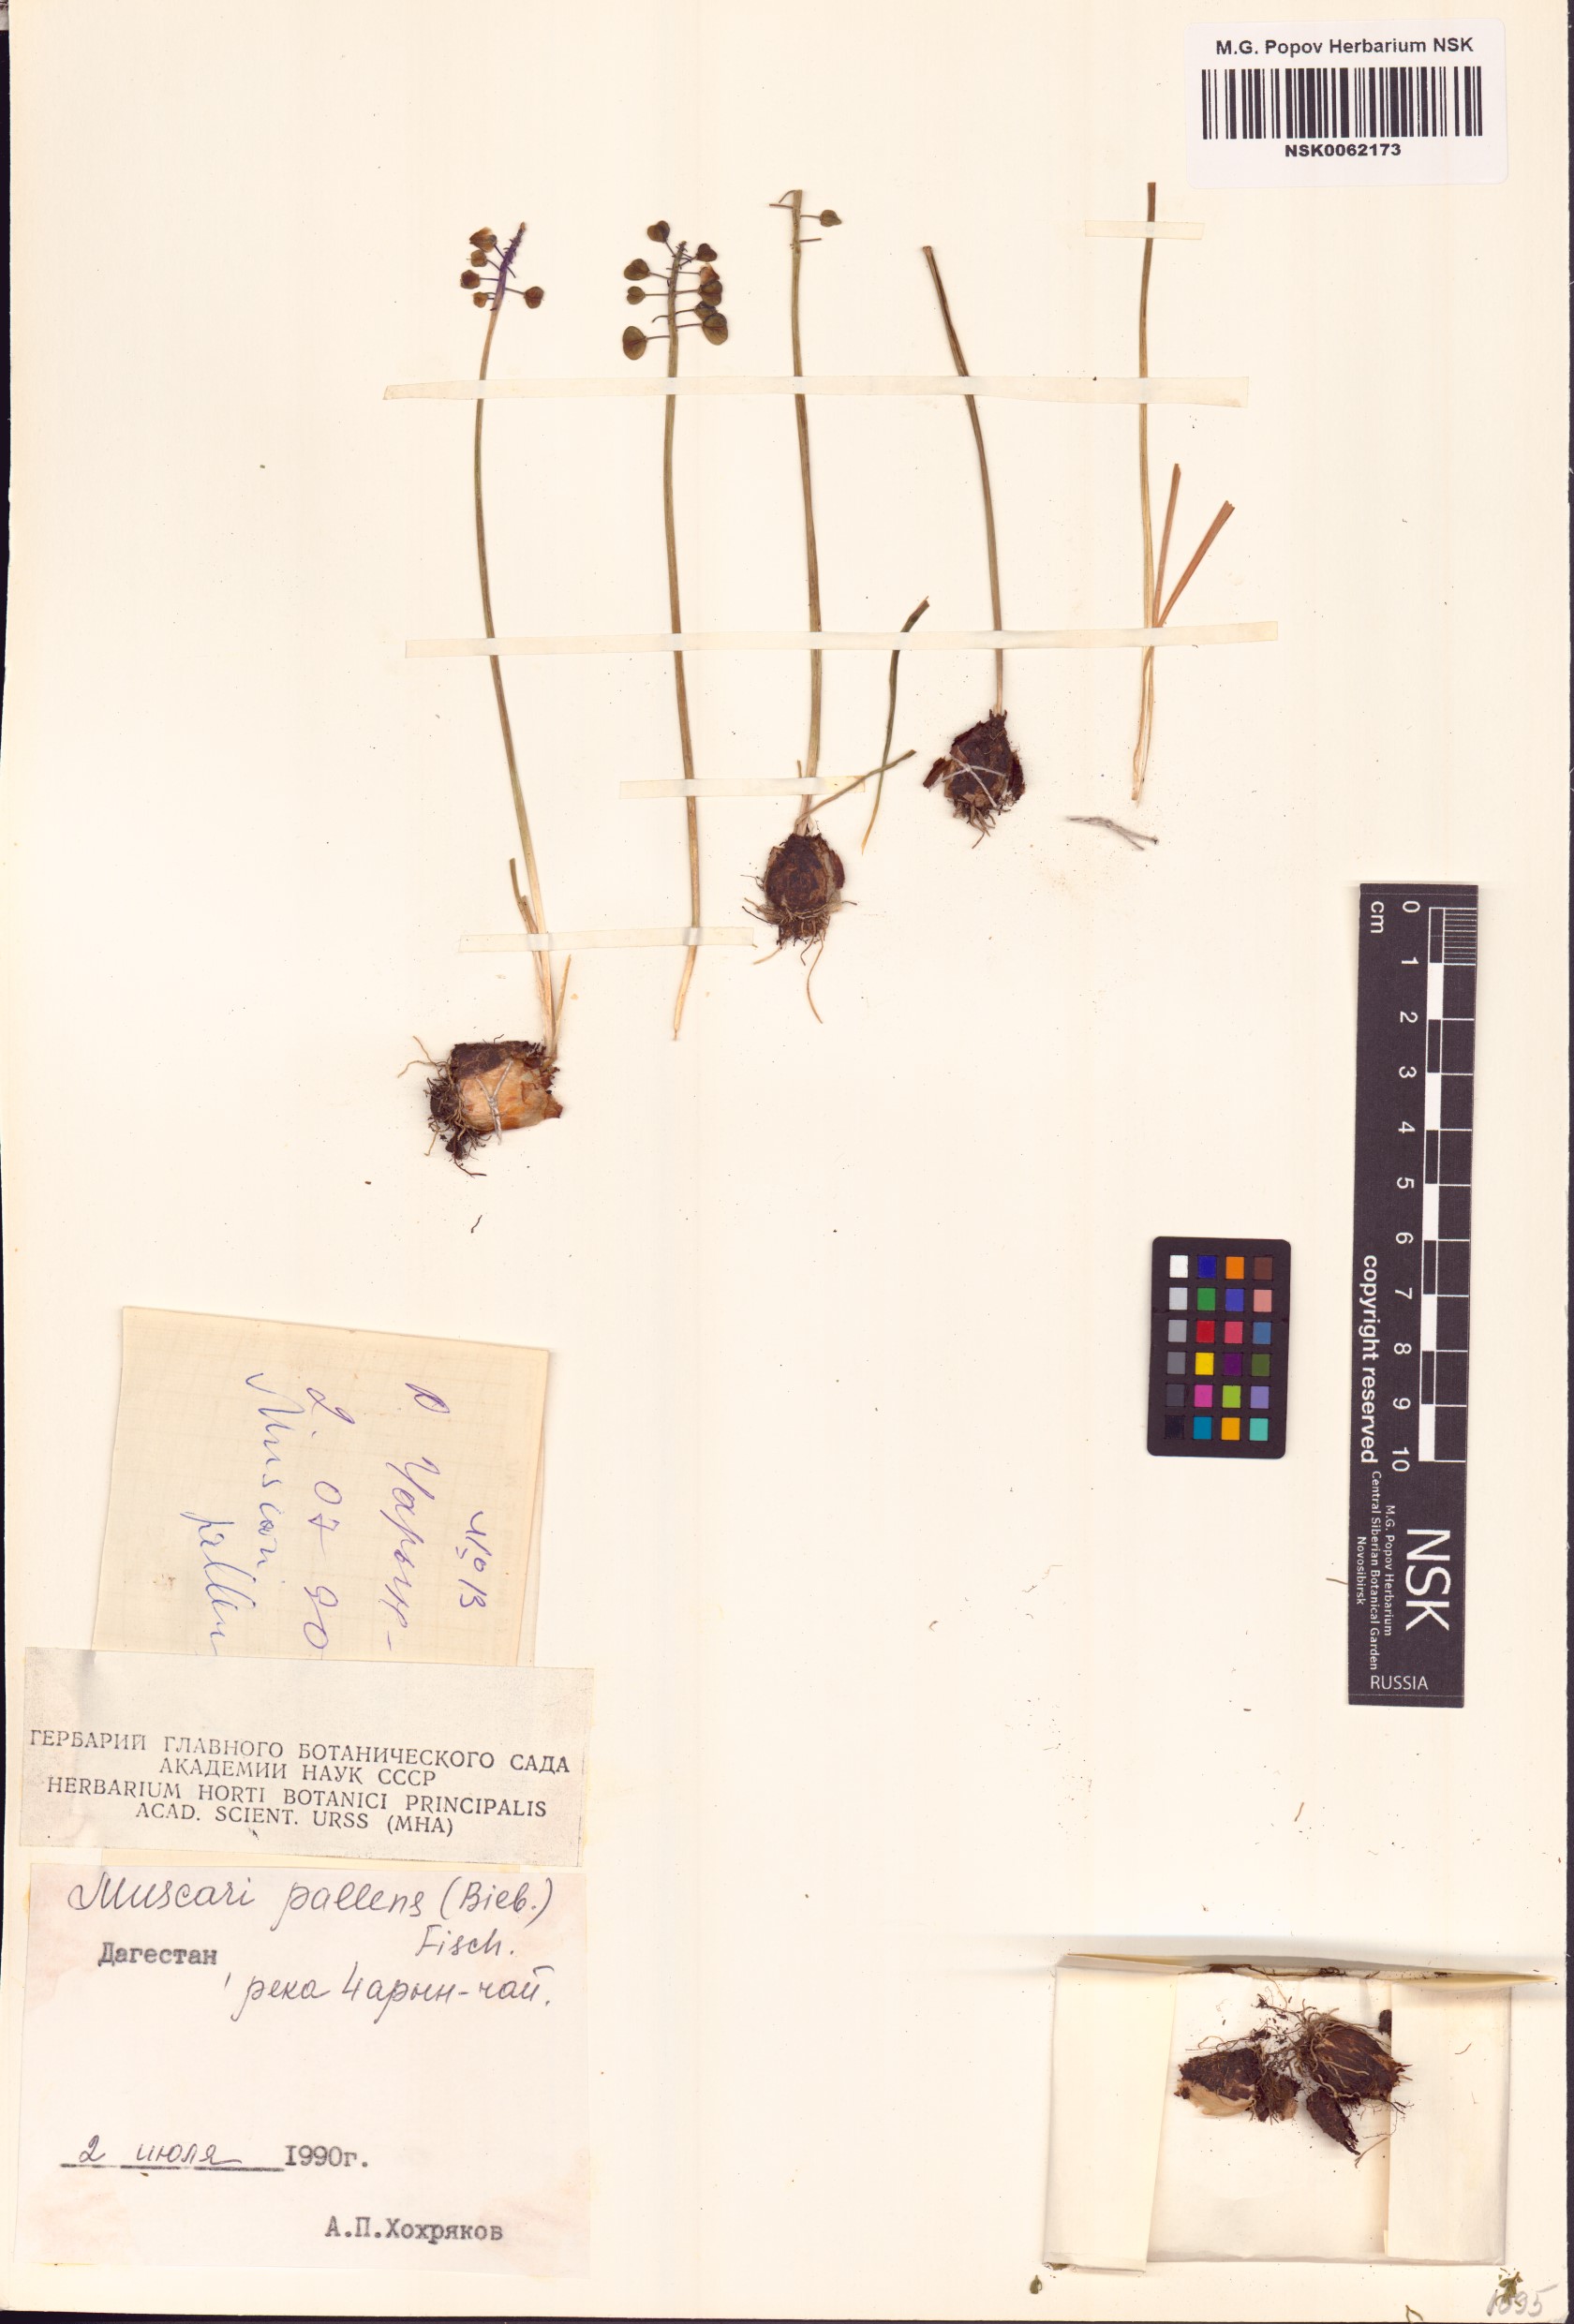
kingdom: Plantae
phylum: Tracheophyta
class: Liliopsida
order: Asparagales
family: Asparagaceae
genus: Muscari
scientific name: Muscari pallens
